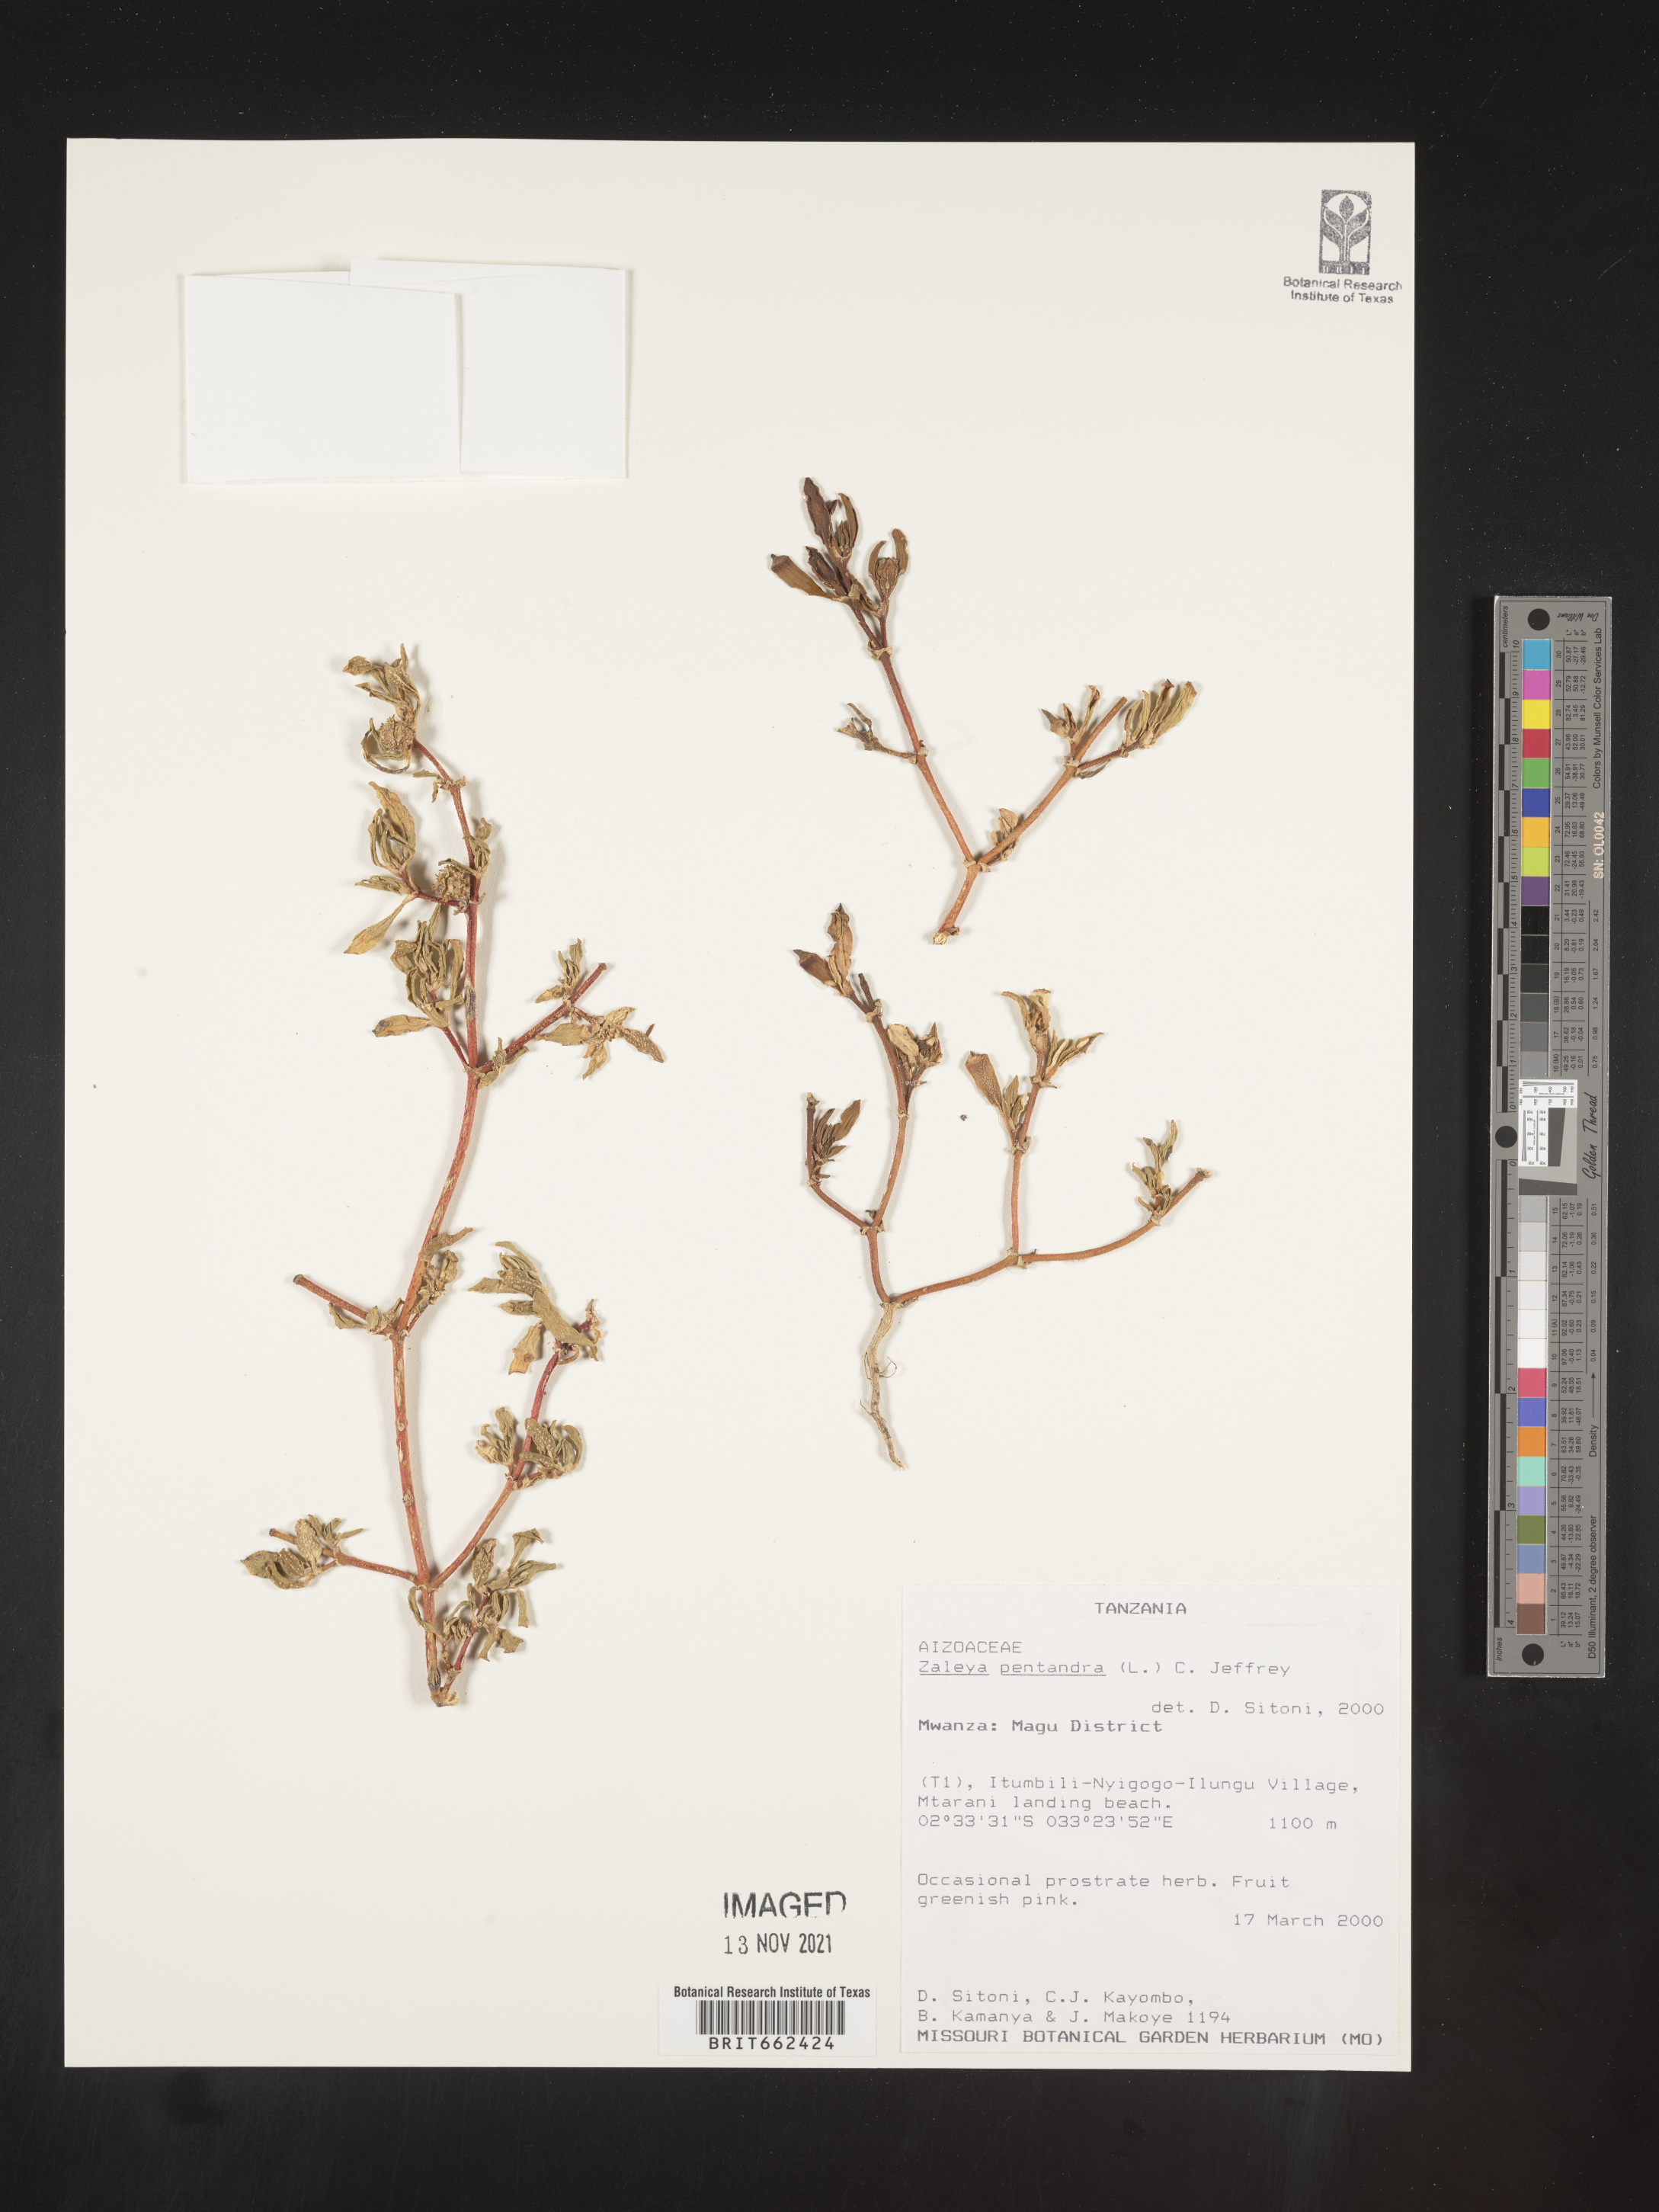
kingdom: Plantae
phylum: Tracheophyta
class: Magnoliopsida
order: Caryophyllales
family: Aizoaceae
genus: Zaleya
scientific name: Zaleya
